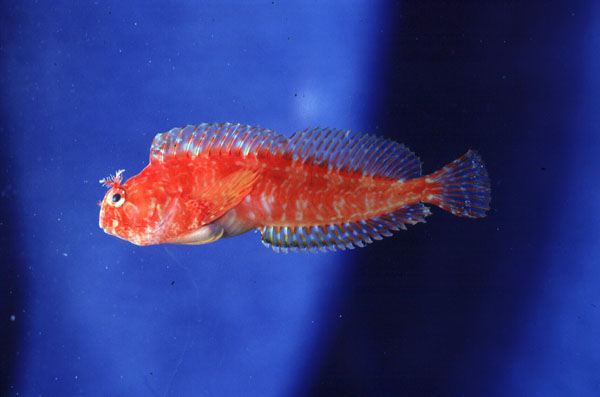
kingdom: Animalia
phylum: Chordata
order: Perciformes
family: Blenniidae
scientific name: Blenniidae
